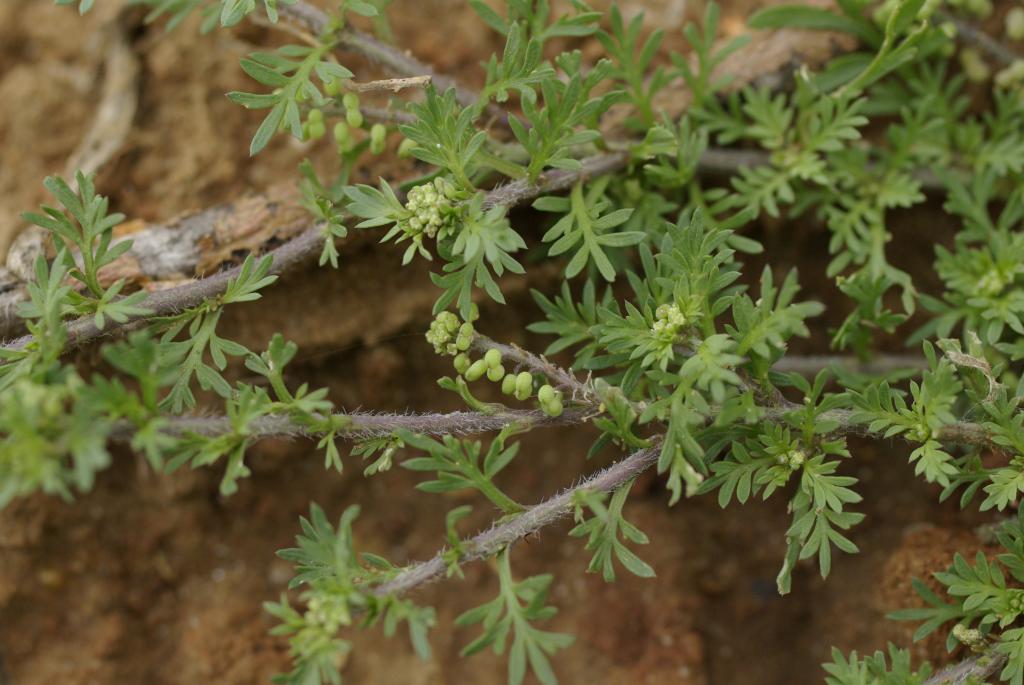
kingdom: Plantae
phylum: Tracheophyta
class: Magnoliopsida
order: Brassicales
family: Brassicaceae
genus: Lepidium
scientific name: Lepidium didymum
